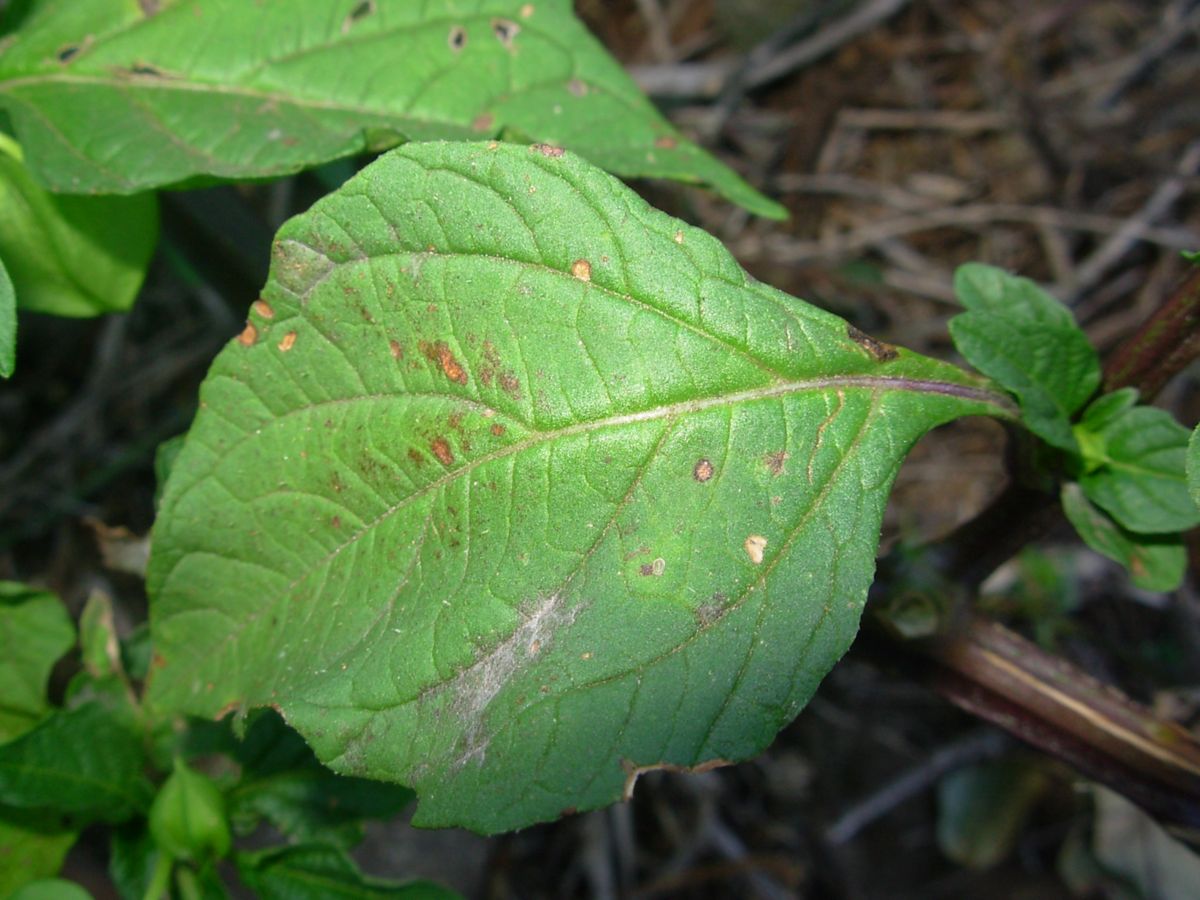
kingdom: Plantae
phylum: Tracheophyta
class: Magnoliopsida
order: Solanales
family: Solanaceae
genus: Nicandra
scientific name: Nicandra physalodes
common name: Apple-of-peru
